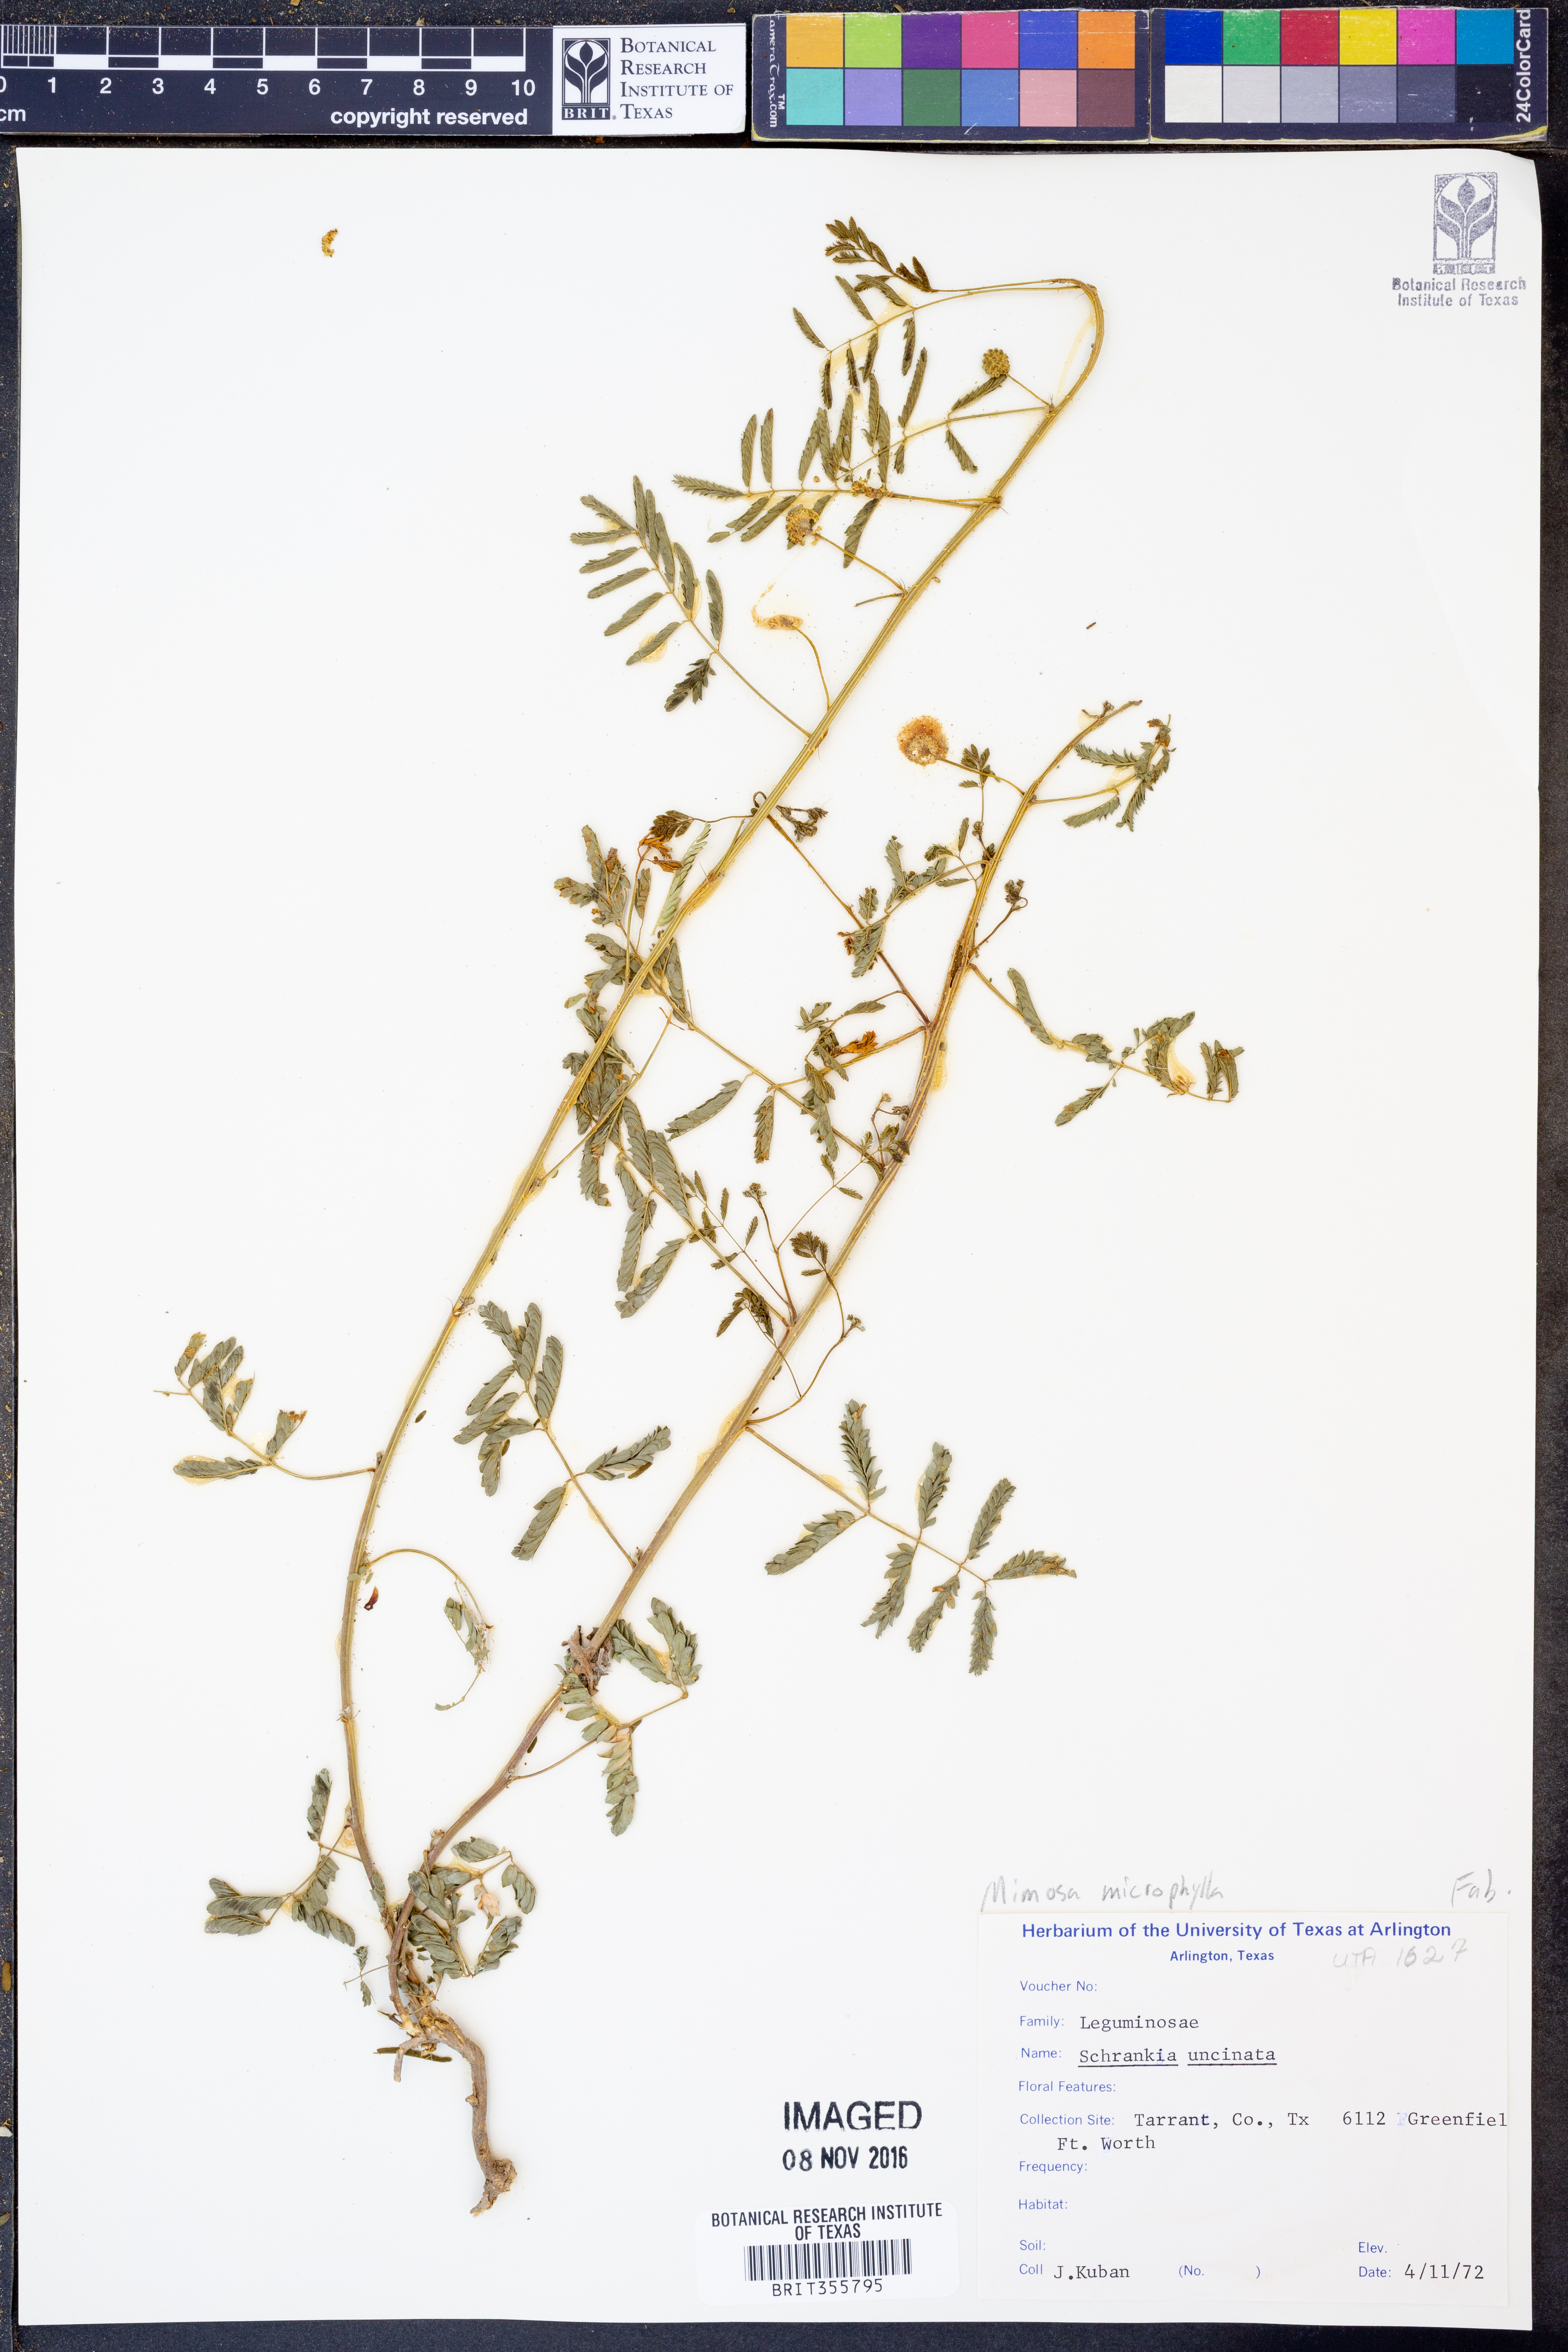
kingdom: Plantae
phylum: Tracheophyta
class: Magnoliopsida
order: Fabales
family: Fabaceae
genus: Mimosa
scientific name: Mimosa quadrivalvis
